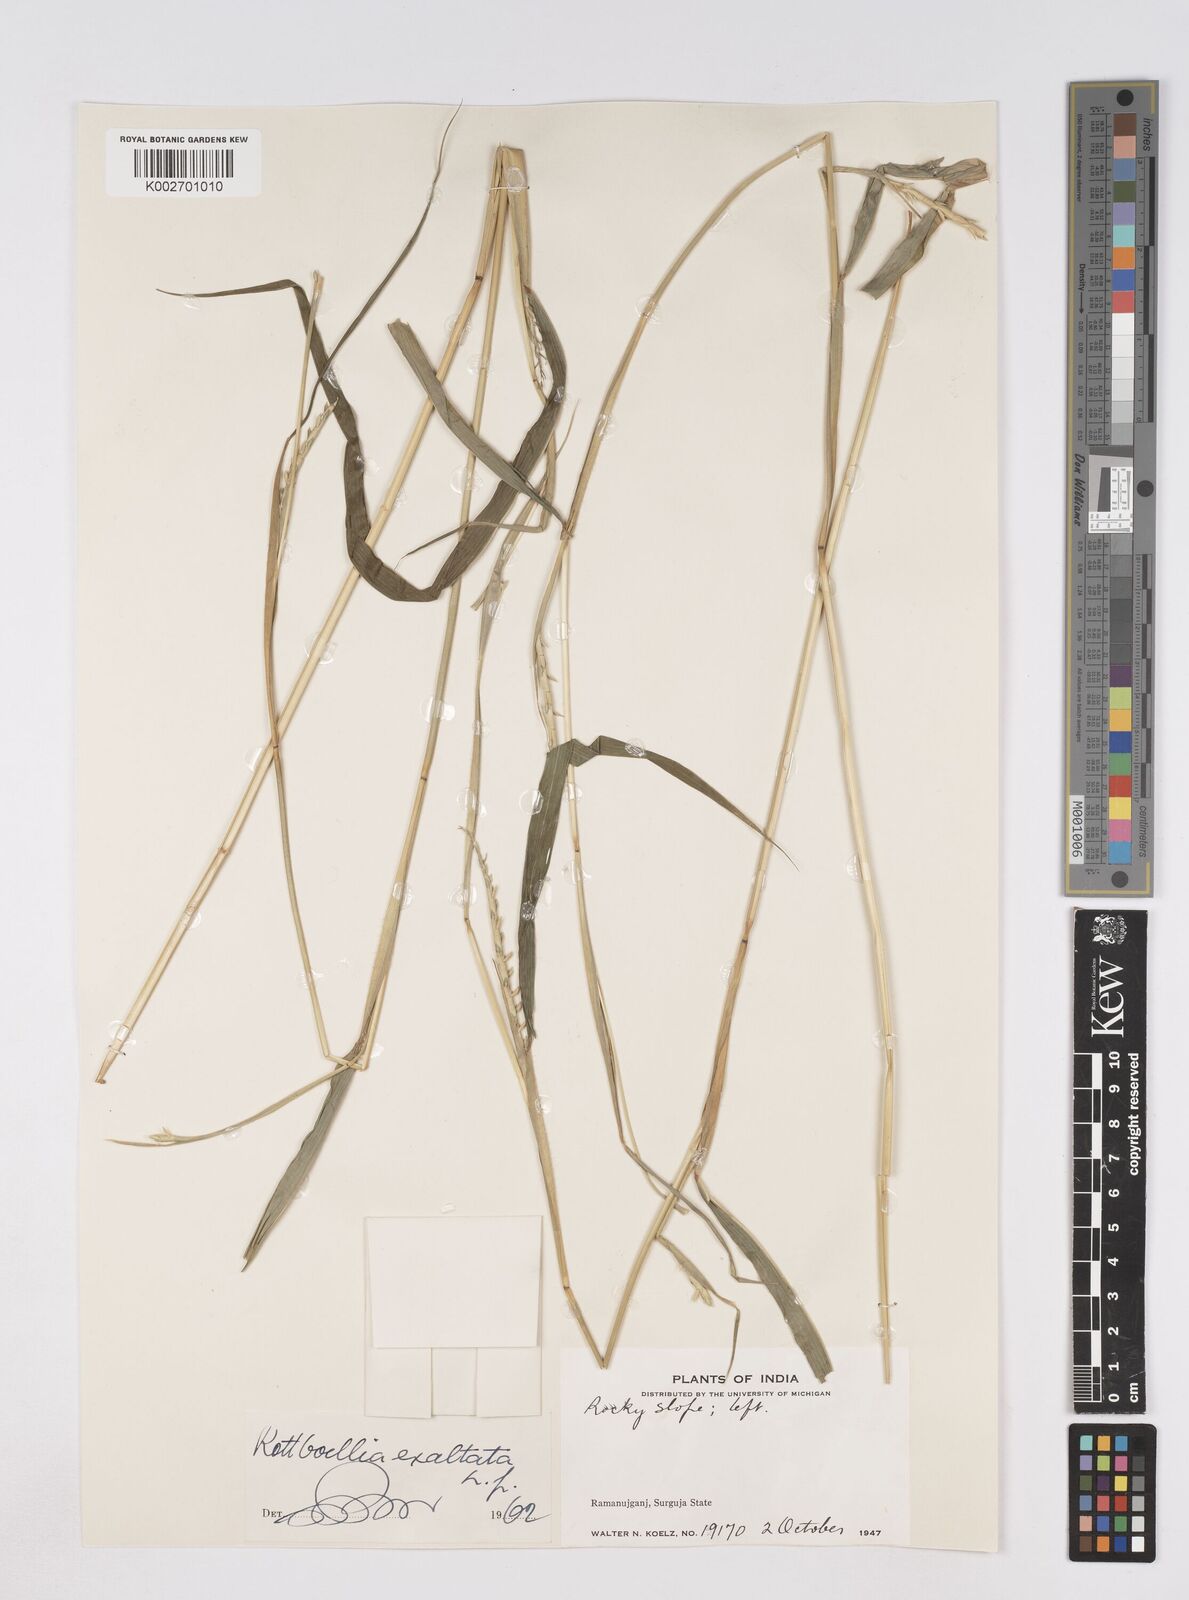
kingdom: Plantae
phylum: Tracheophyta
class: Liliopsida
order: Poales
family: Poaceae
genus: Ophiuros
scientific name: Ophiuros exaltatus
